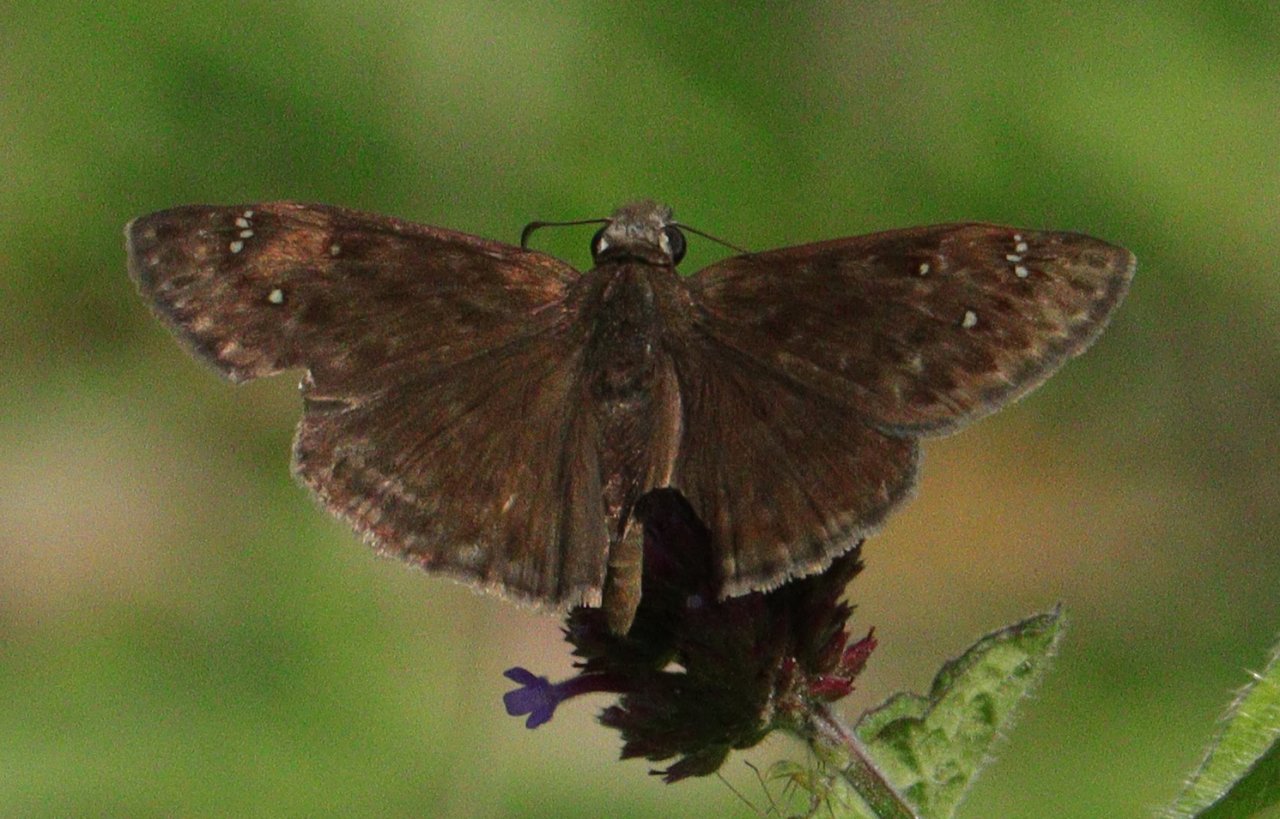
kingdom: Animalia
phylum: Arthropoda
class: Insecta
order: Lepidoptera
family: Hesperiidae
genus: Gesta
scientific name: Gesta
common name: Horace's Duskywing
